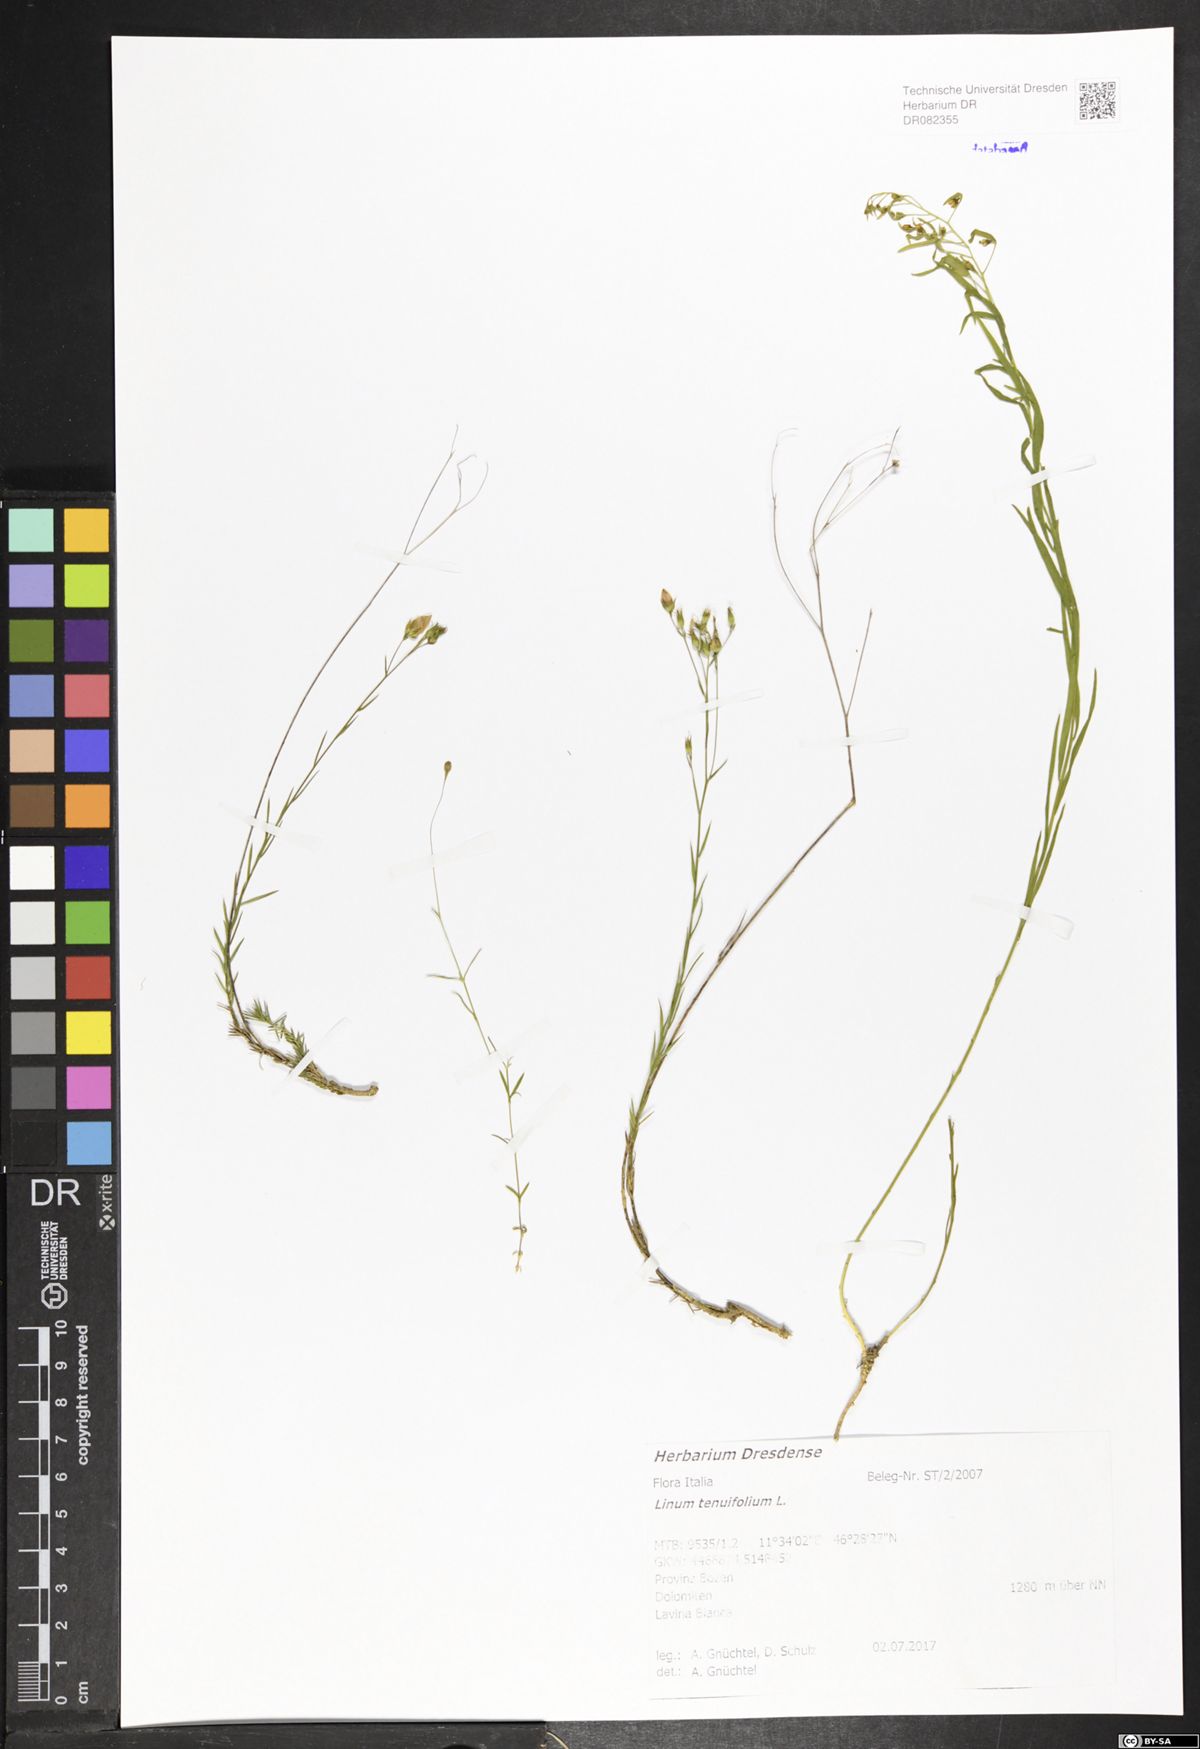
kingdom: Plantae
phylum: Tracheophyta
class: Magnoliopsida
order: Malpighiales
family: Linaceae
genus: Linum
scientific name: Linum tenuifolium
